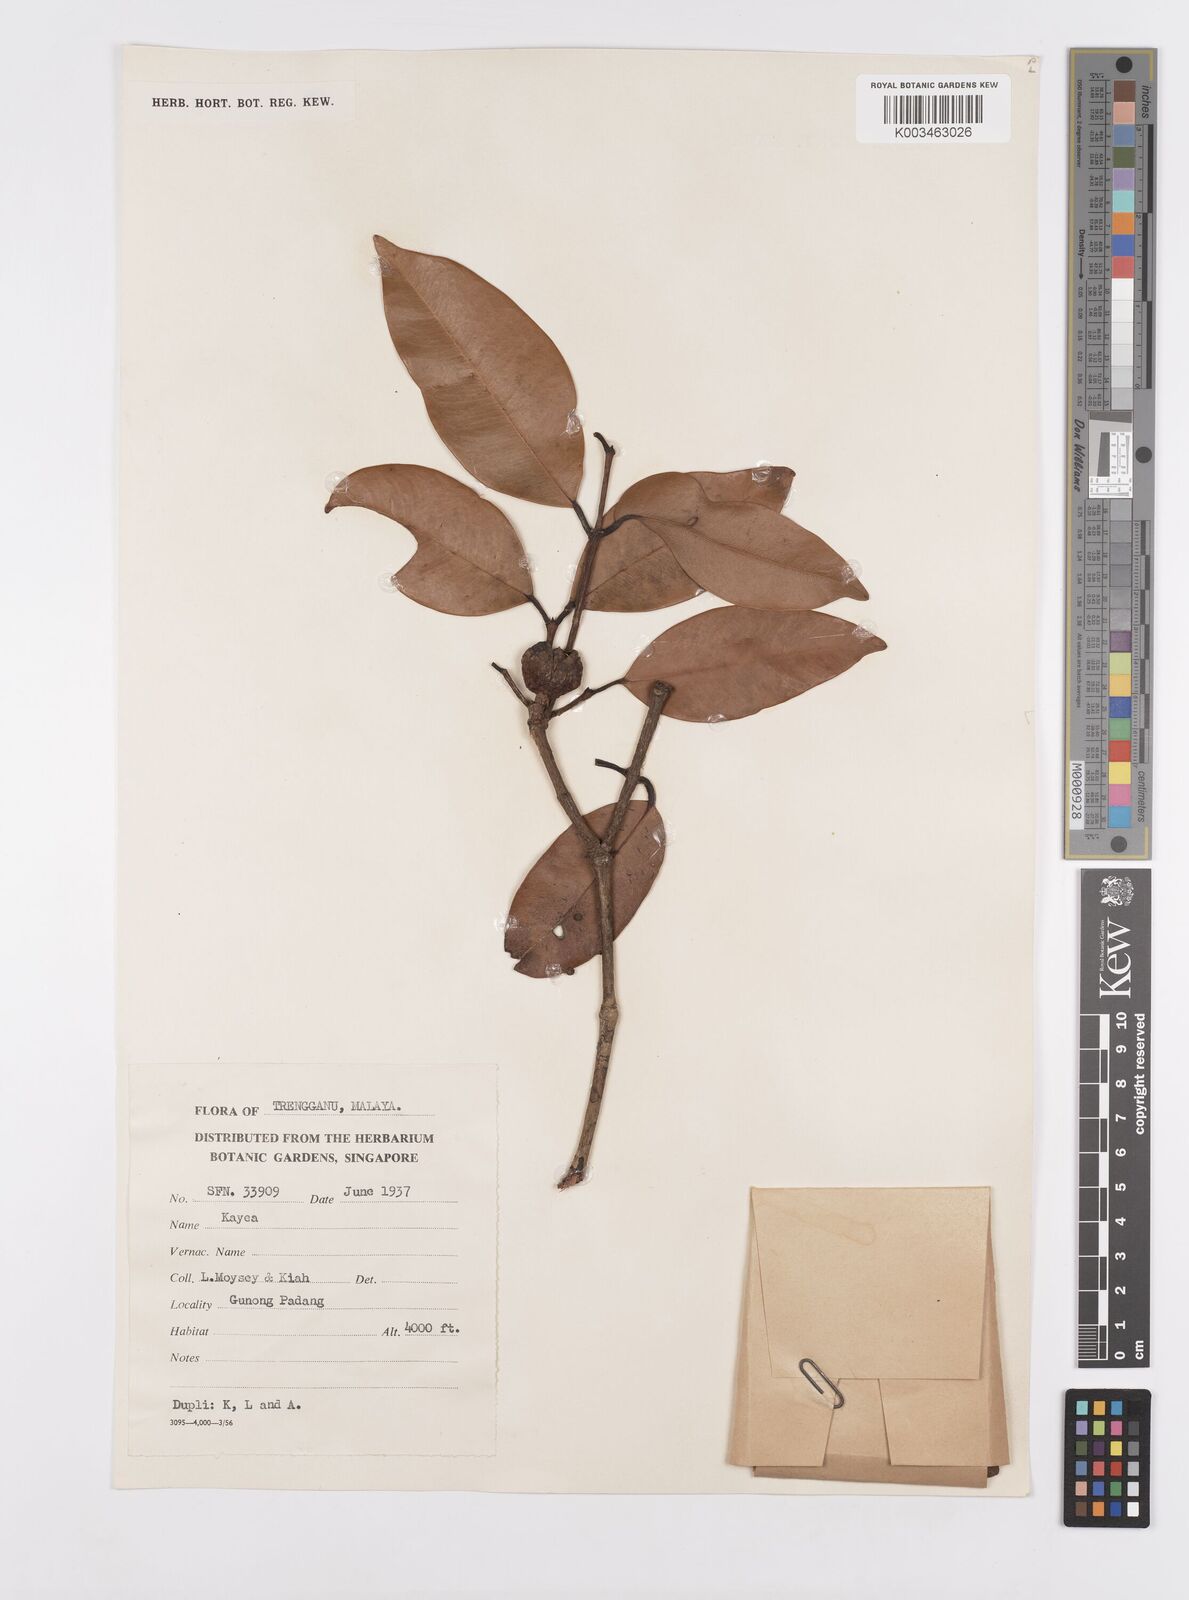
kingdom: Plantae
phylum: Tracheophyta
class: Magnoliopsida
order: Malpighiales
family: Calophyllaceae
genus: Kayea
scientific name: Kayea
